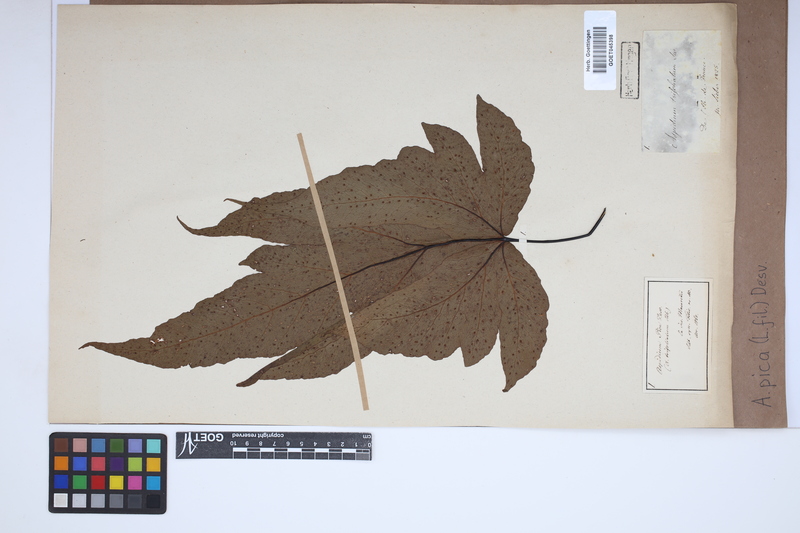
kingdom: Plantae
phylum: Tracheophyta
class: Polypodiopsida
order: Polypodiales
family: Tectariaceae
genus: Tectaria
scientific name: Tectaria pica
